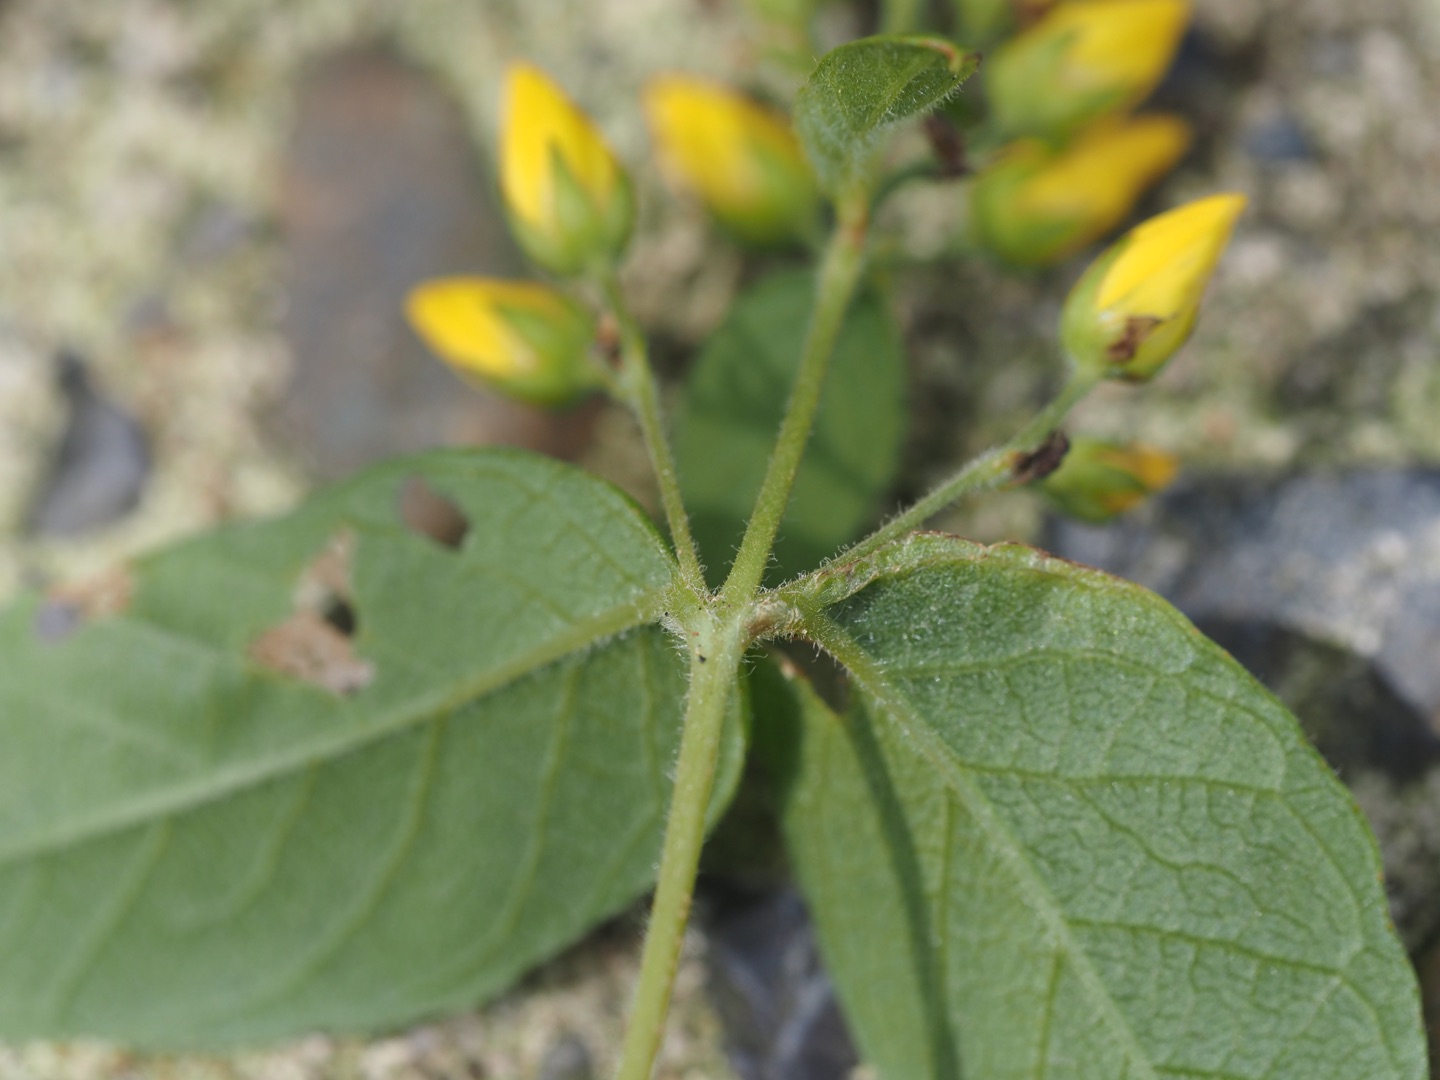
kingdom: Plantae
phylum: Tracheophyta
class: Magnoliopsida
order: Ericales
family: Primulaceae
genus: Lysimachia
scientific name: Lysimachia vulgaris
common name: Almindelig fredløs
